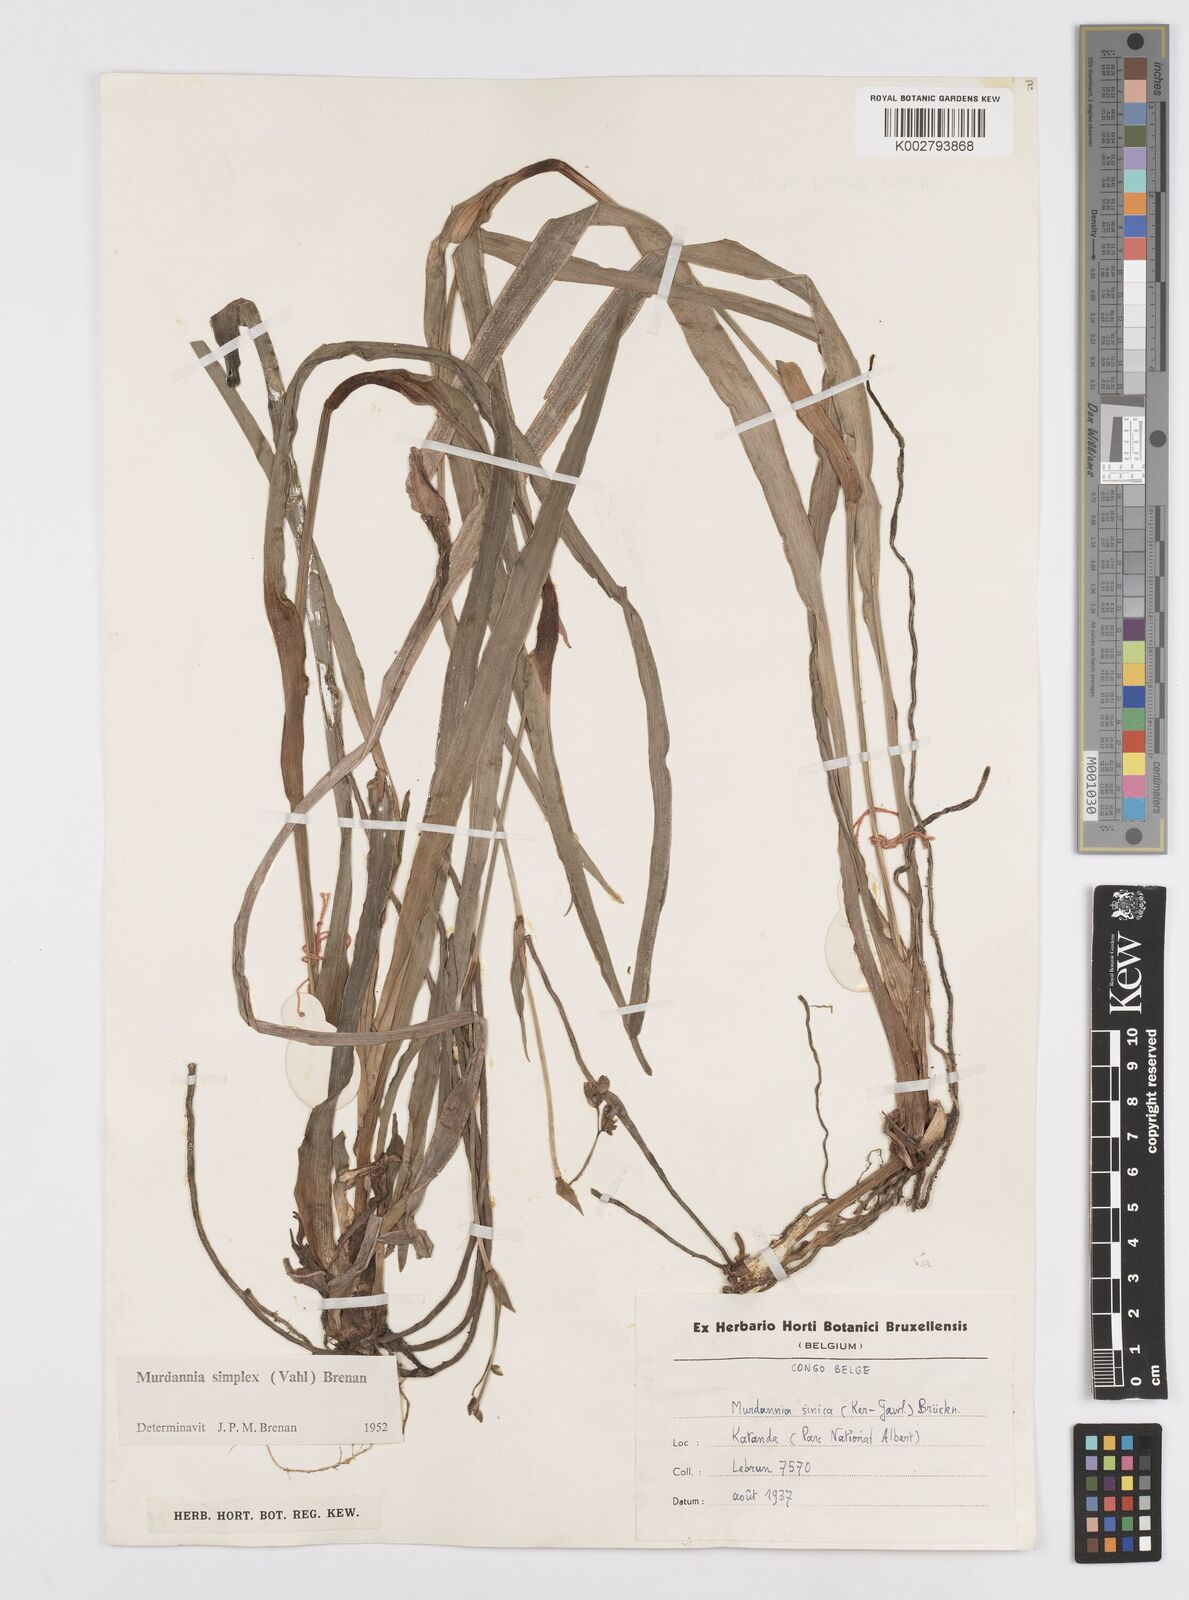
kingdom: Plantae
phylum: Tracheophyta
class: Liliopsida
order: Commelinales
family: Commelinaceae
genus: Murdannia
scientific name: Murdannia simplex
